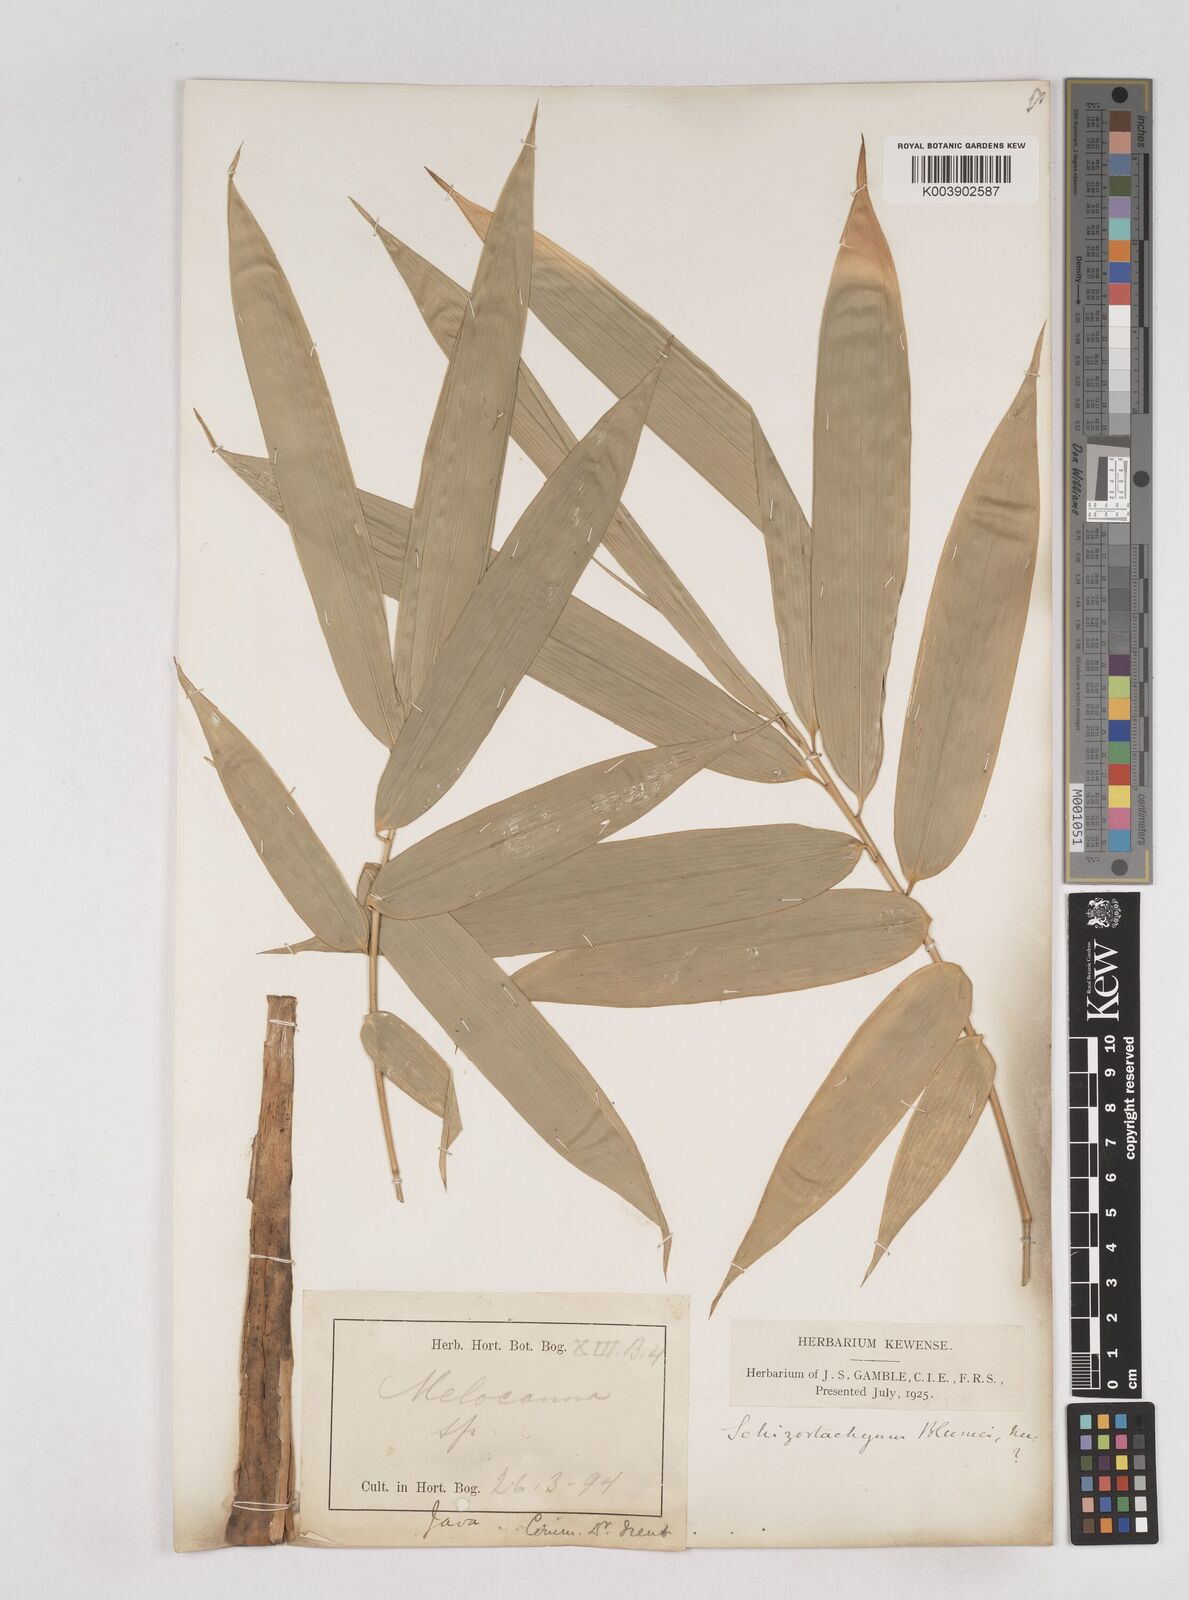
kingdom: Plantae
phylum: Tracheophyta
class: Liliopsida
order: Poales
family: Poaceae
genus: Schizostachyum
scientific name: Schizostachyum
